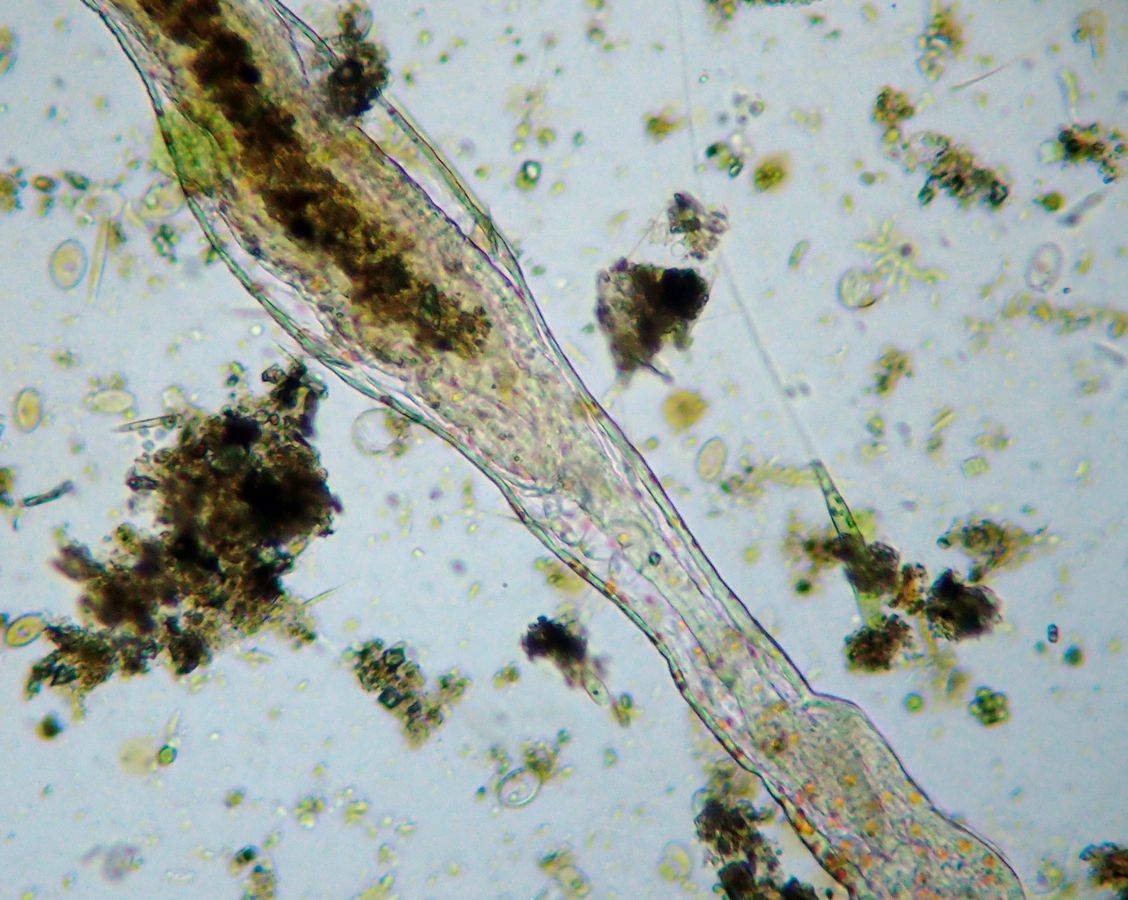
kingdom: Animalia
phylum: Annelida
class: Polychaeta
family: Aeolosomatidae
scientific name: Aeolosomatidae
